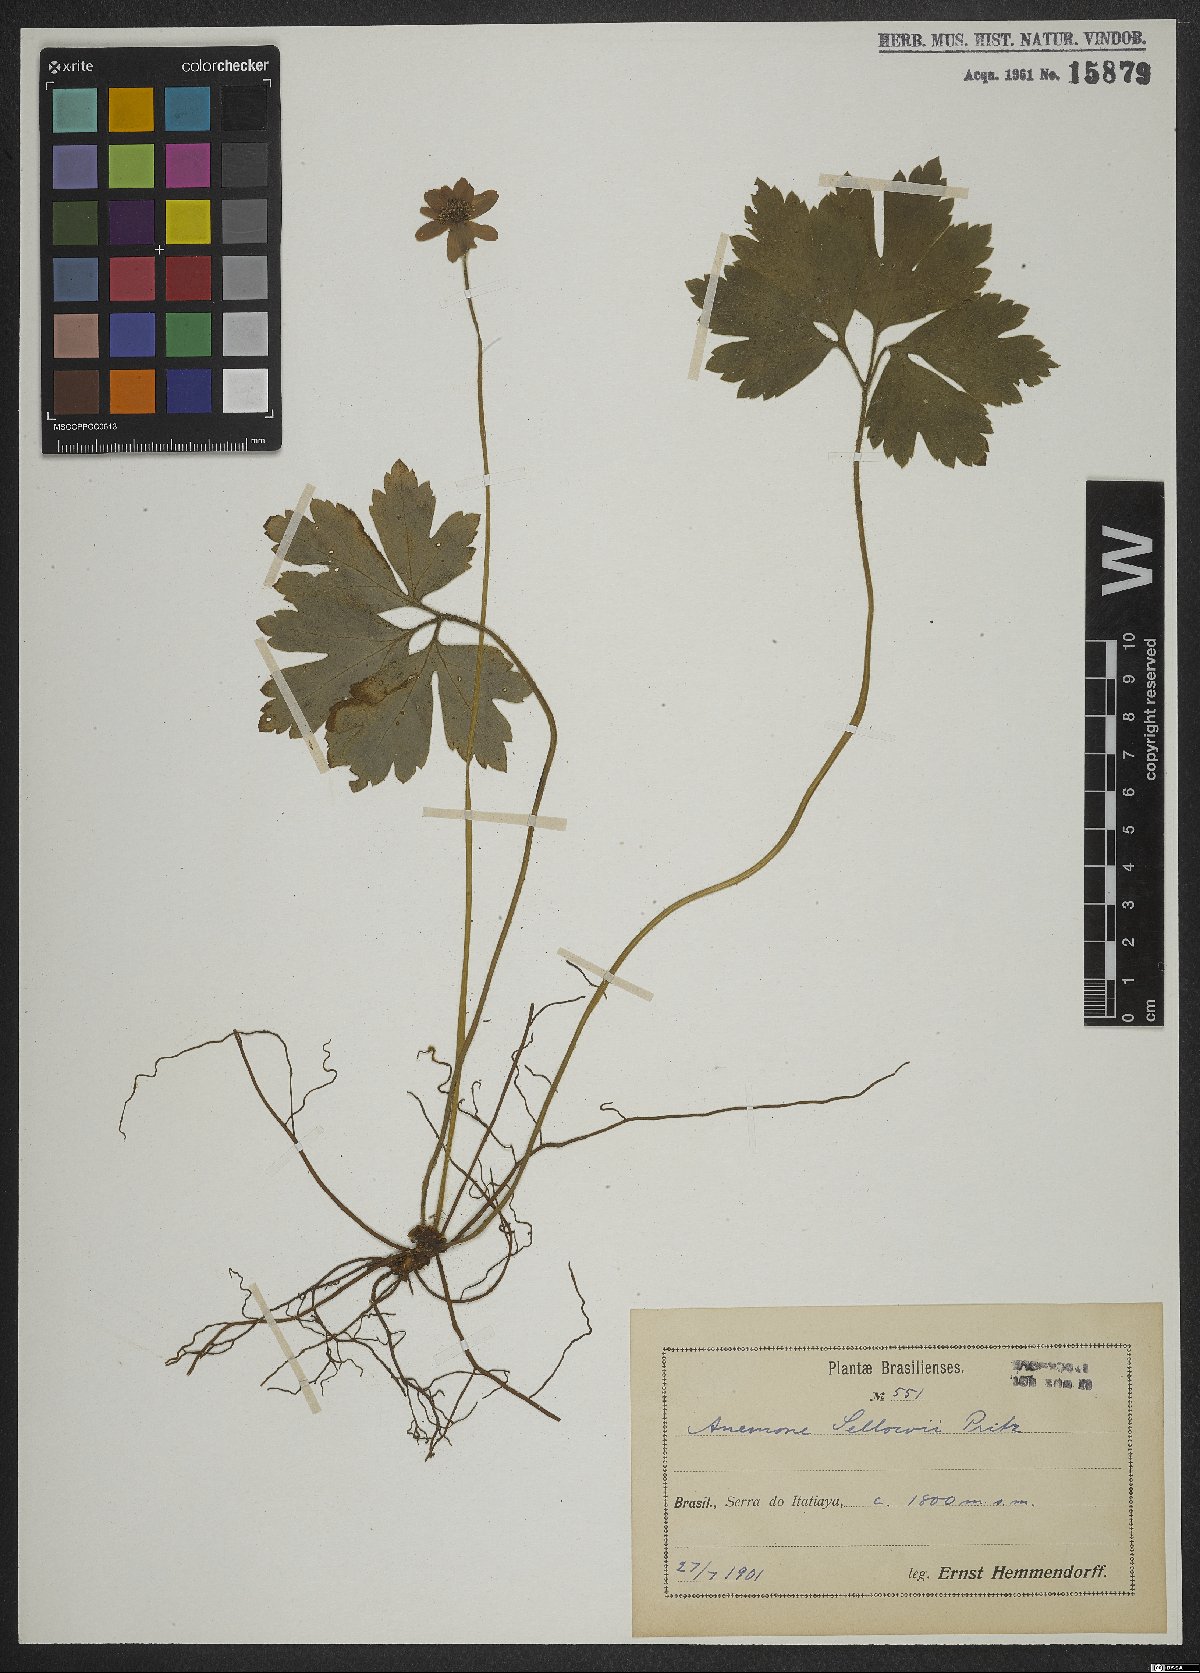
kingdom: Plantae
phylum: Tracheophyta
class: Magnoliopsida
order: Ranunculales
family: Ranunculaceae
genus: Knowltonia
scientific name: Knowltonia sellowii
